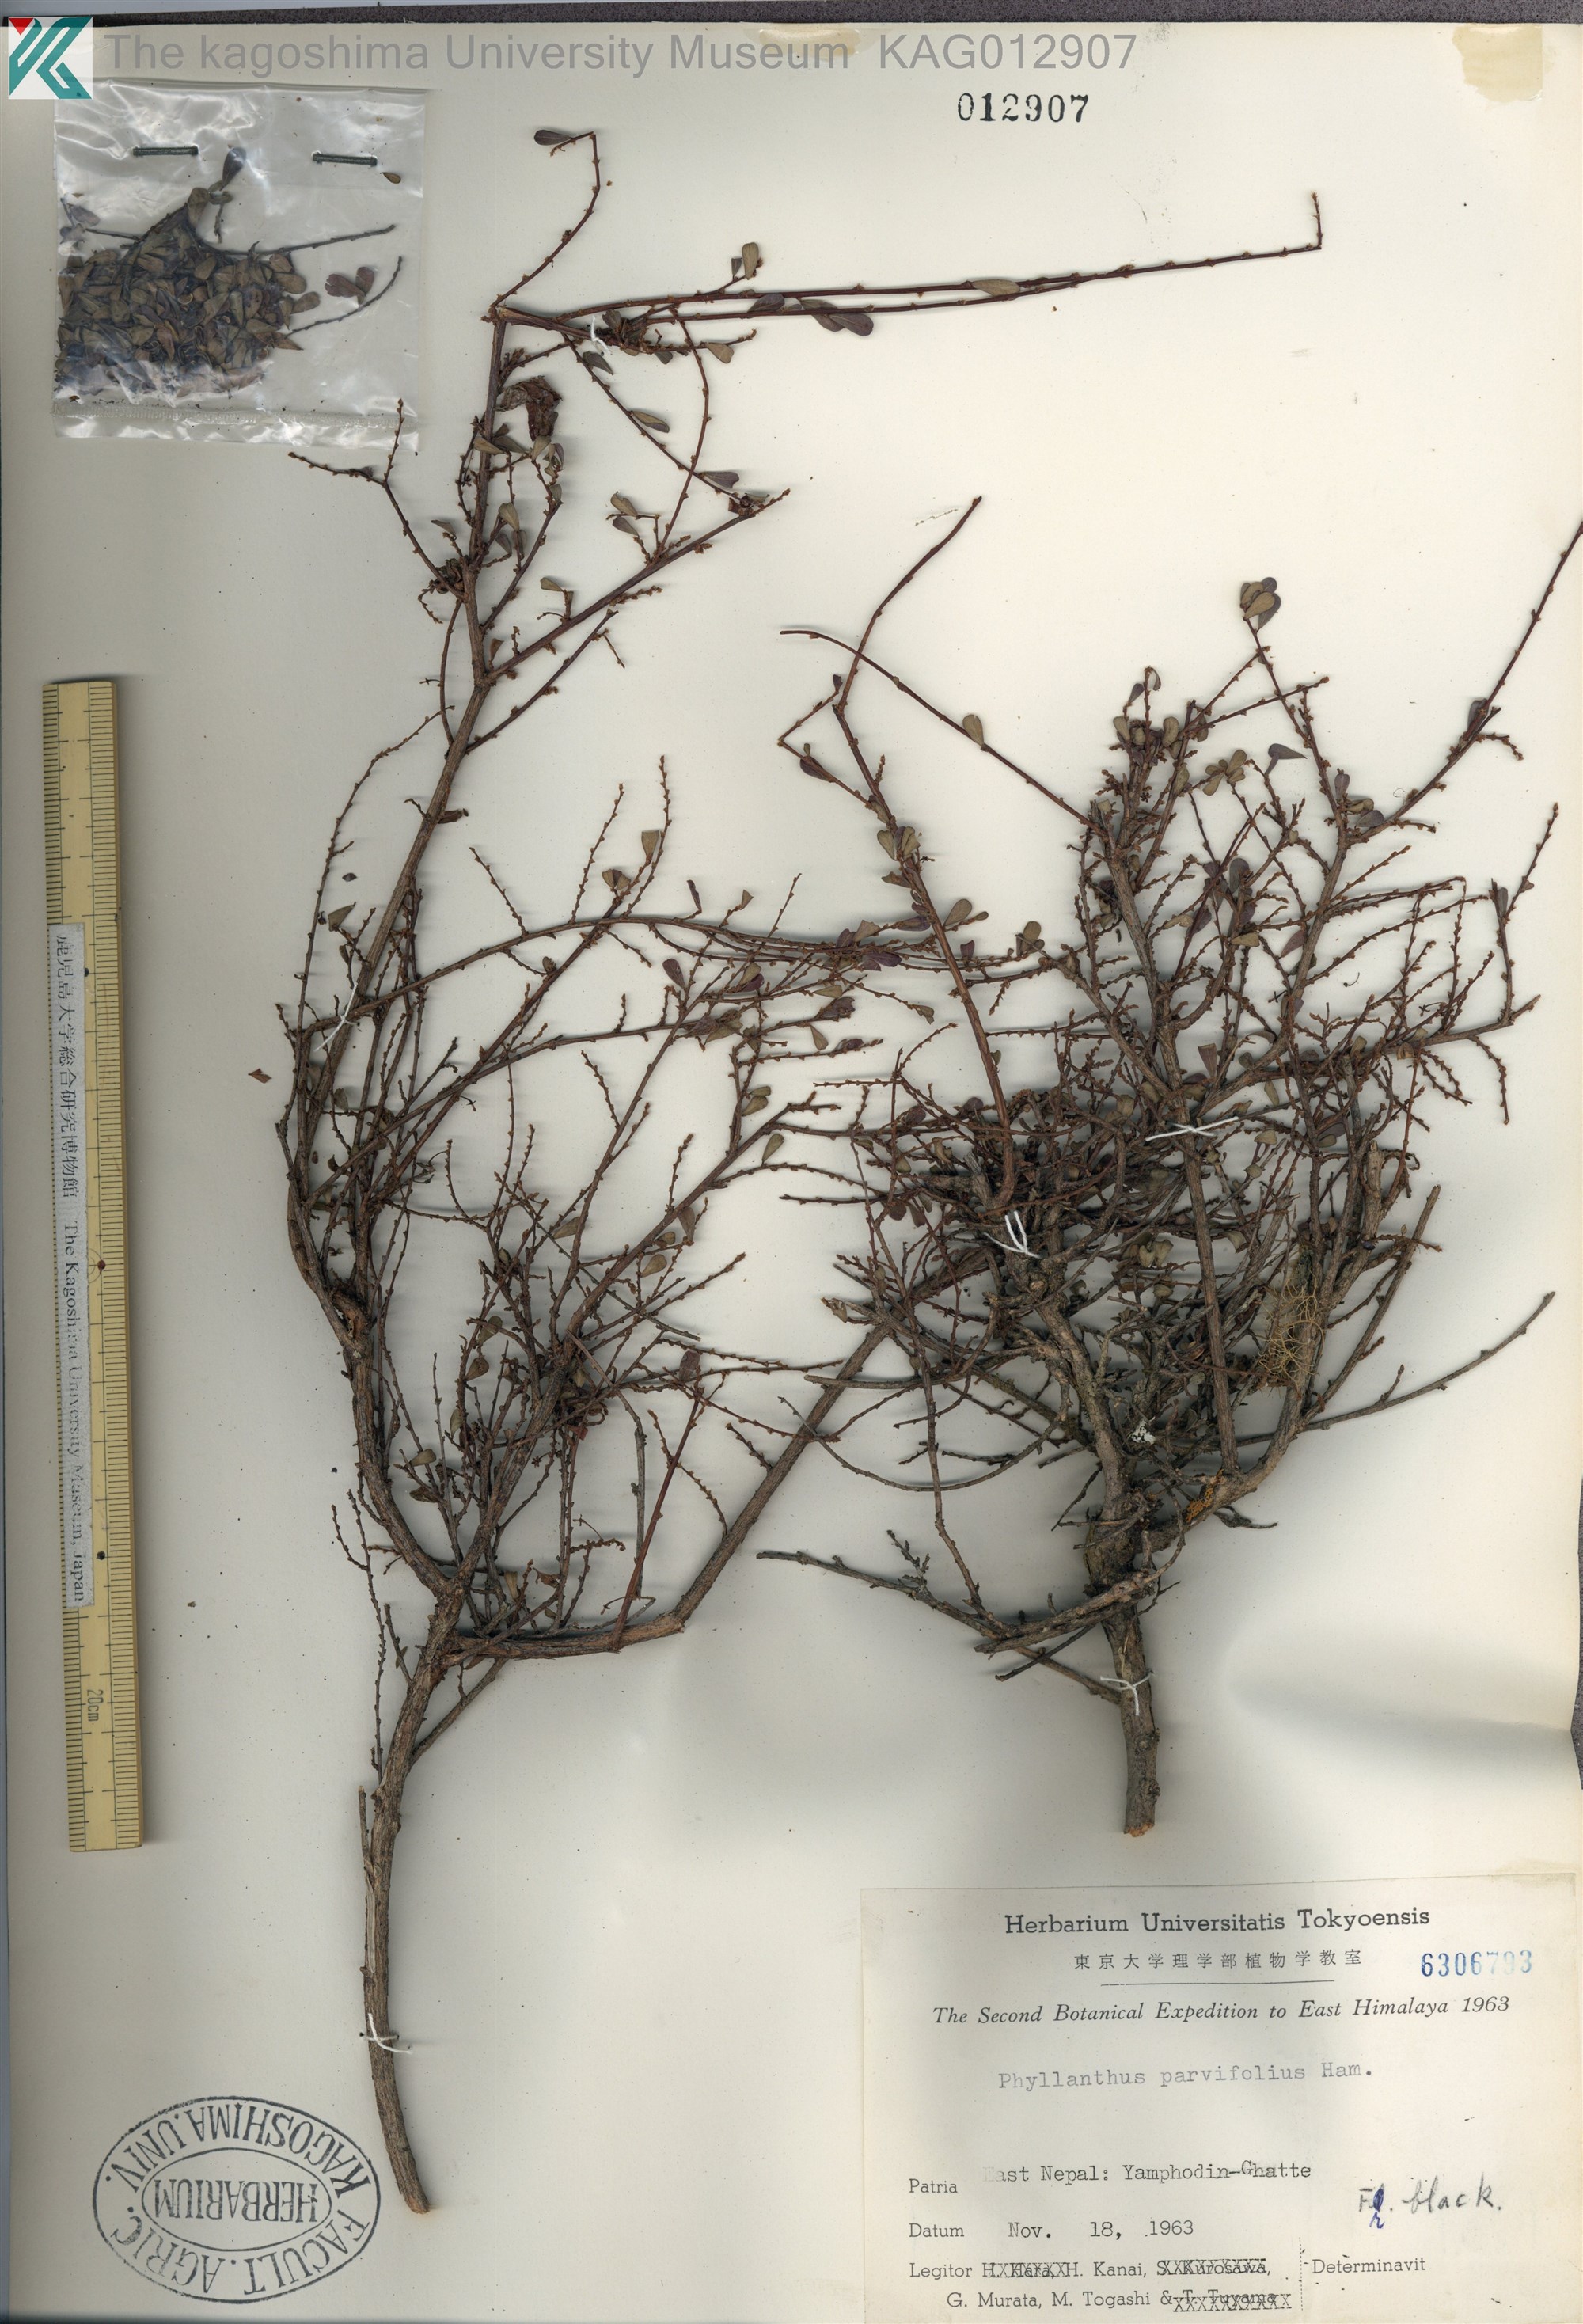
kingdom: Plantae
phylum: Tracheophyta
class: Magnoliopsida
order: Malpighiales
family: Phyllanthaceae
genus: Phyllanthus
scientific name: Phyllanthus parvifolius
